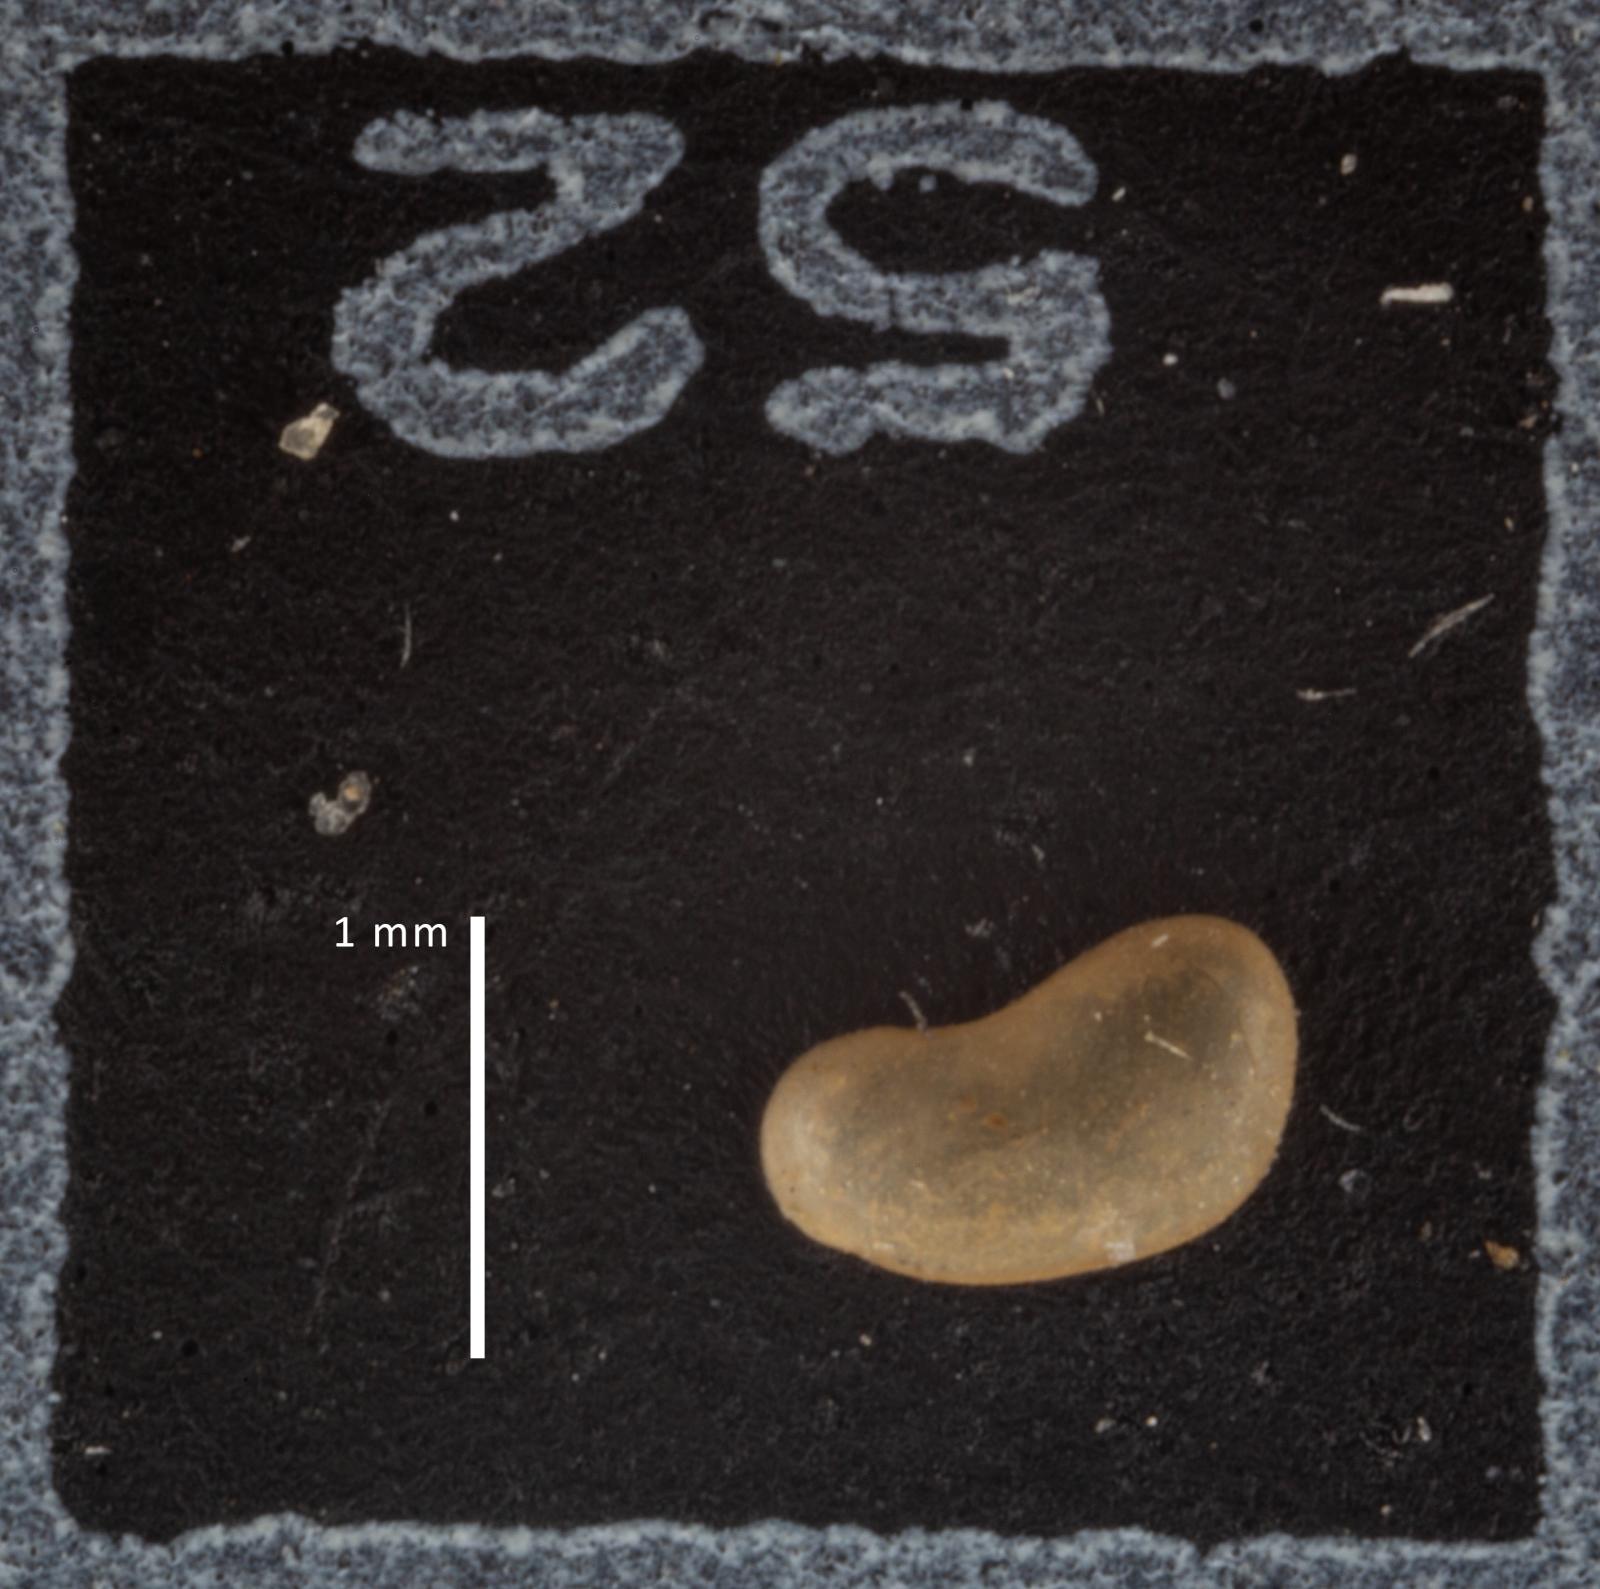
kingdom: Animalia
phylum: Arthropoda
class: Ostracoda
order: Podocopida
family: Candonidae
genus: Candona
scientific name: Candona candida
